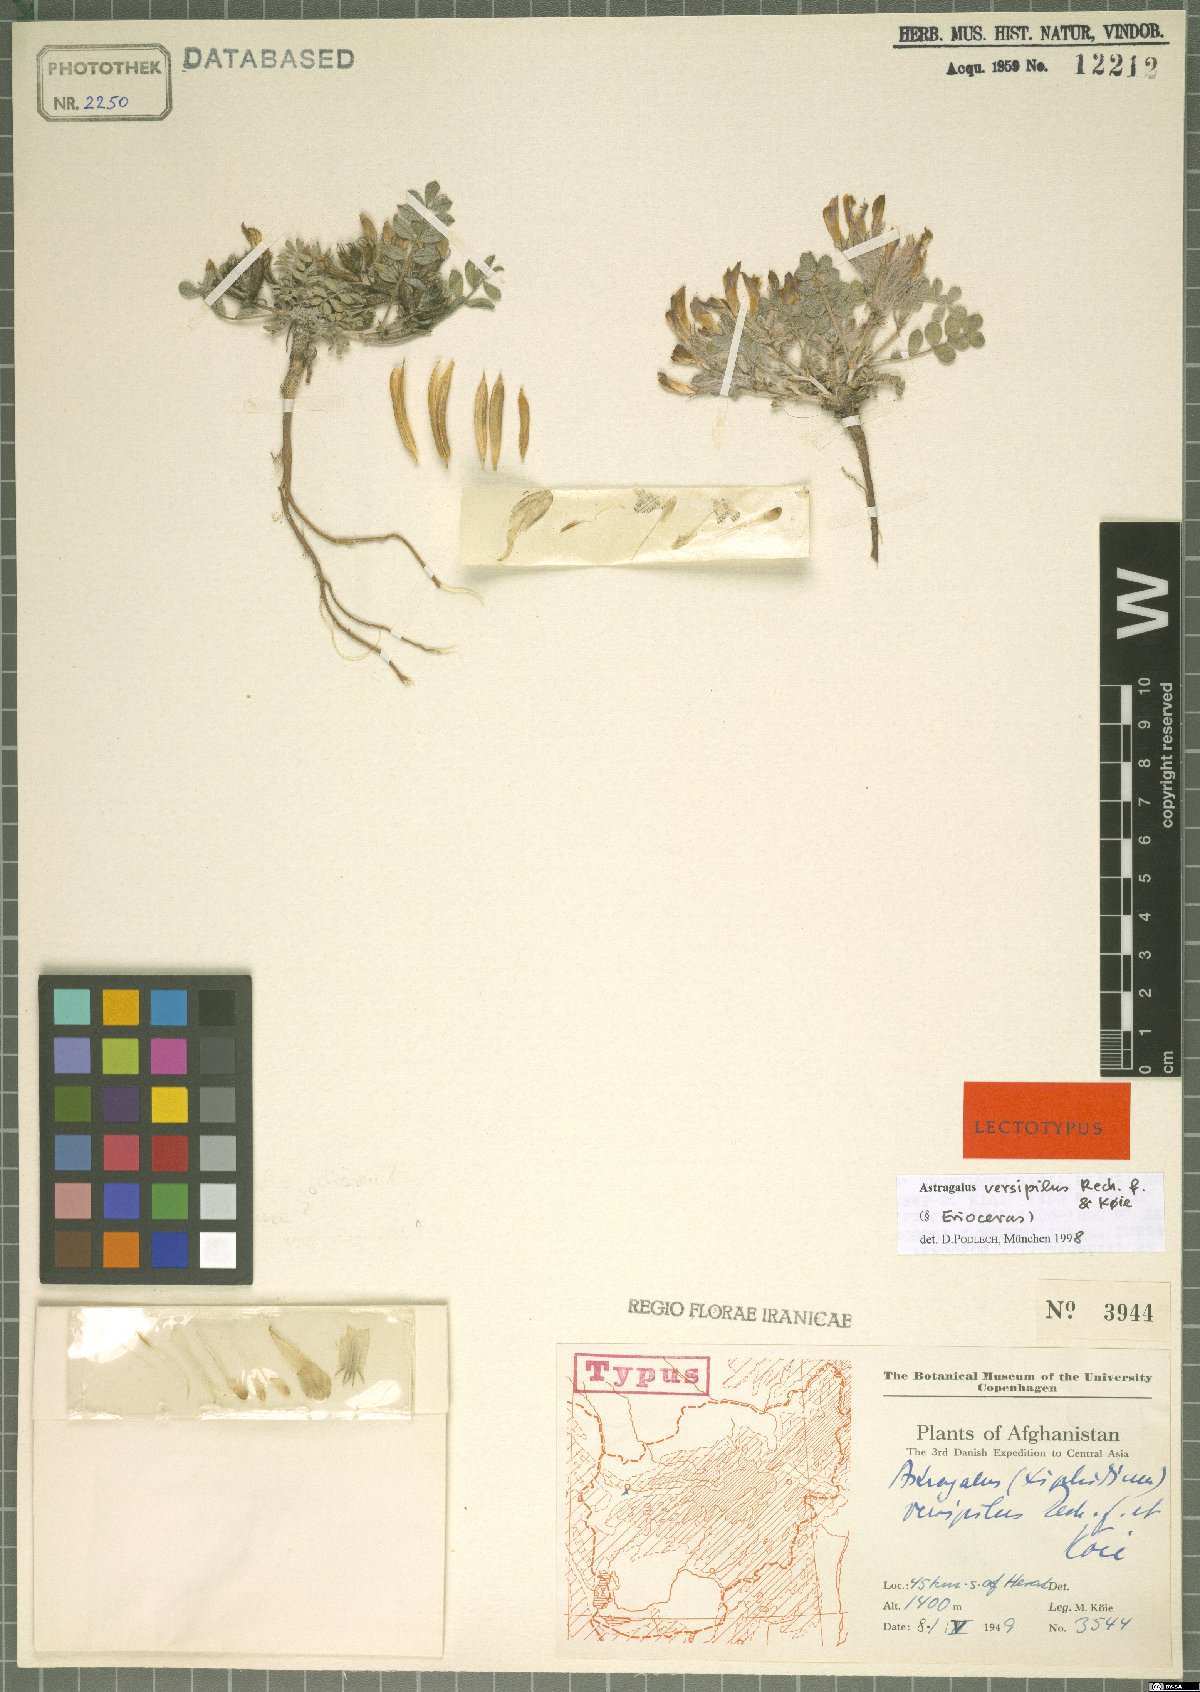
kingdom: Plantae
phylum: Tracheophyta
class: Magnoliopsida
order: Fabales
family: Fabaceae
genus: Astragalus
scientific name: Astragalus versipilus
